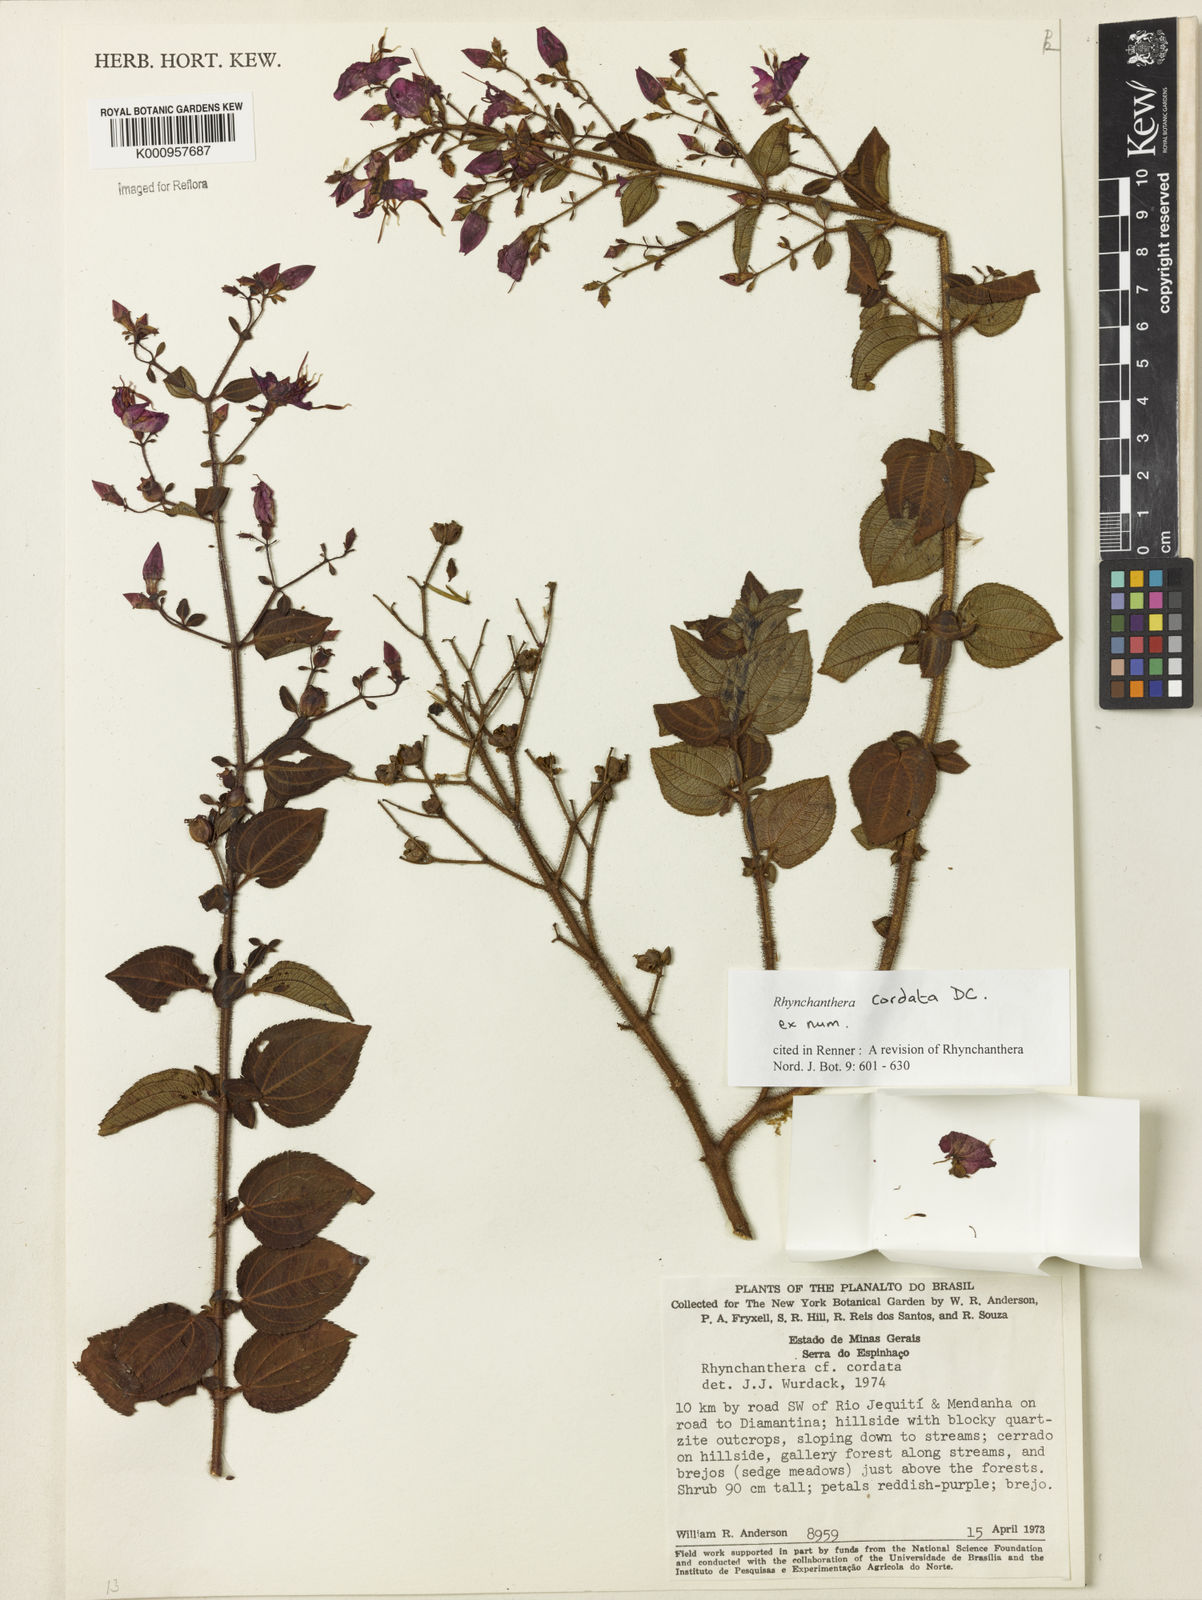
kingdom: Plantae
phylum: Tracheophyta
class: Magnoliopsida
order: Myrtales
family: Melastomataceae
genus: Rhynchanthera
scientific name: Rhynchanthera cordata
